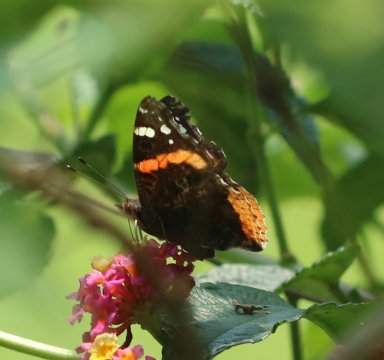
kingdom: Animalia
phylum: Arthropoda
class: Insecta
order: Lepidoptera
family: Nymphalidae
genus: Vanessa
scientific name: Vanessa atalanta
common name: Red Admiral
